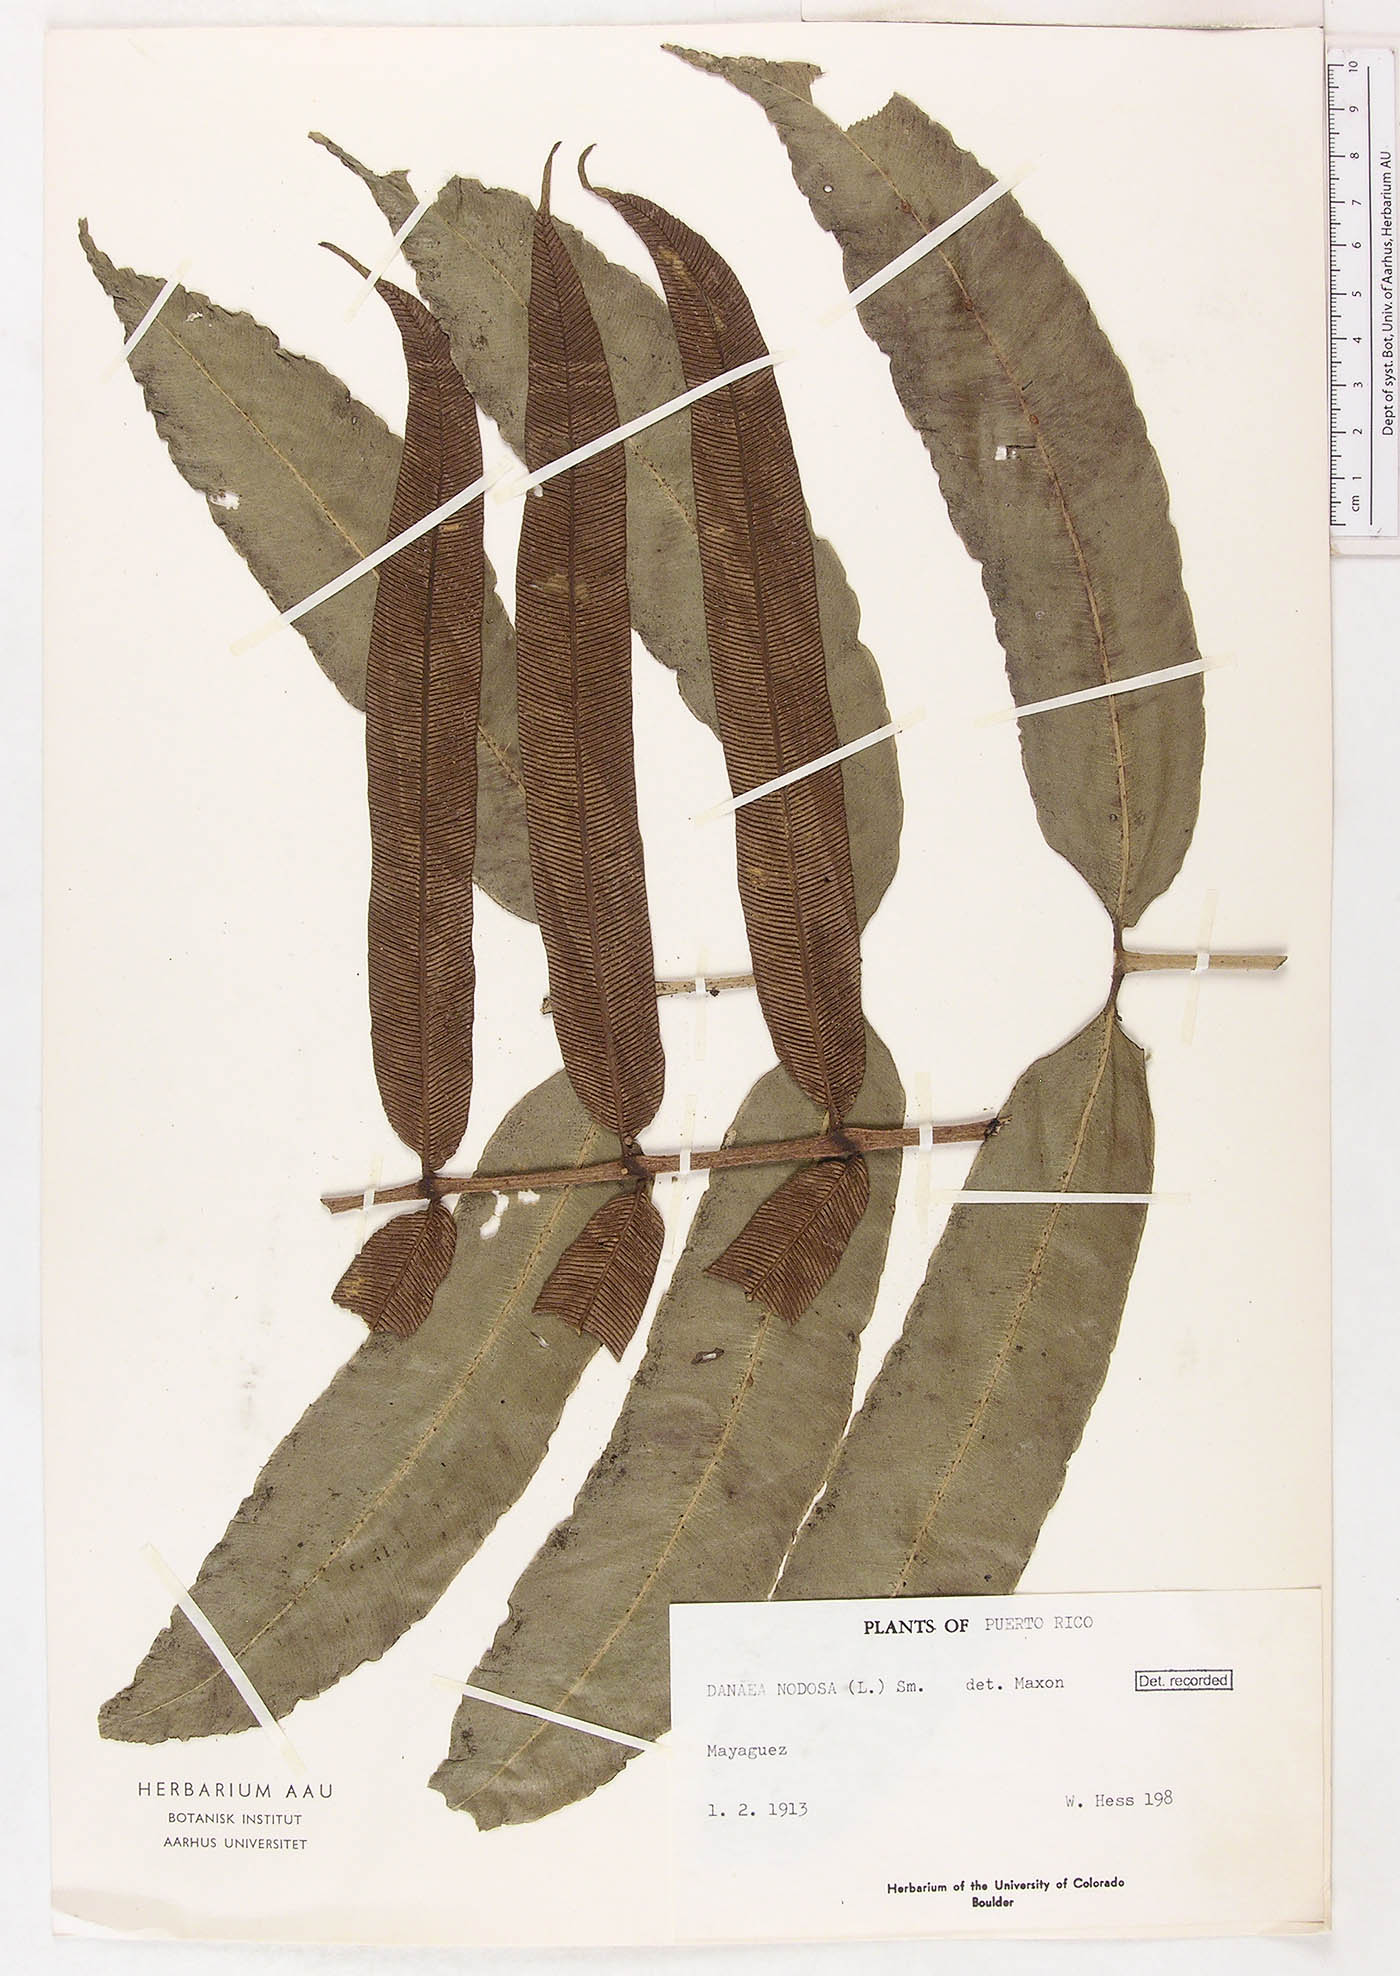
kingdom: Plantae
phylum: Tracheophyta
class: Polypodiopsida
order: Marattiales
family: Marattiaceae
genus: Danaea
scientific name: Danaea nodosa
